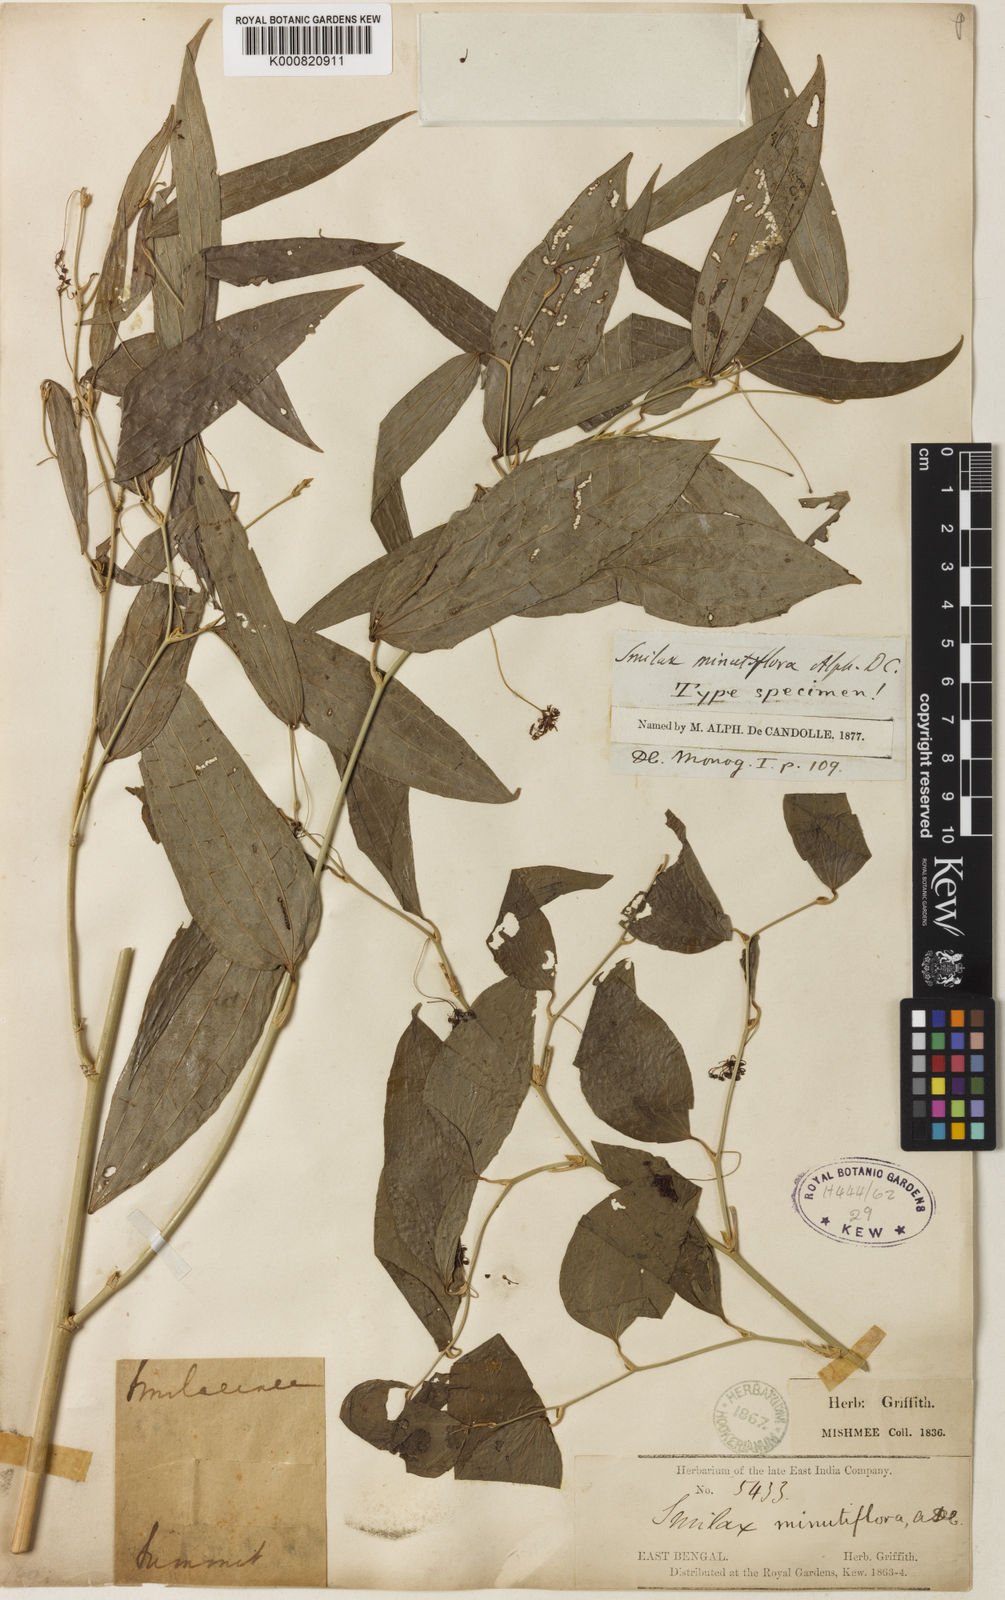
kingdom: Plantae
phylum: Tracheophyta
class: Liliopsida
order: Liliales
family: Smilacaceae
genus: Smilax
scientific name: Smilax minutiflora
